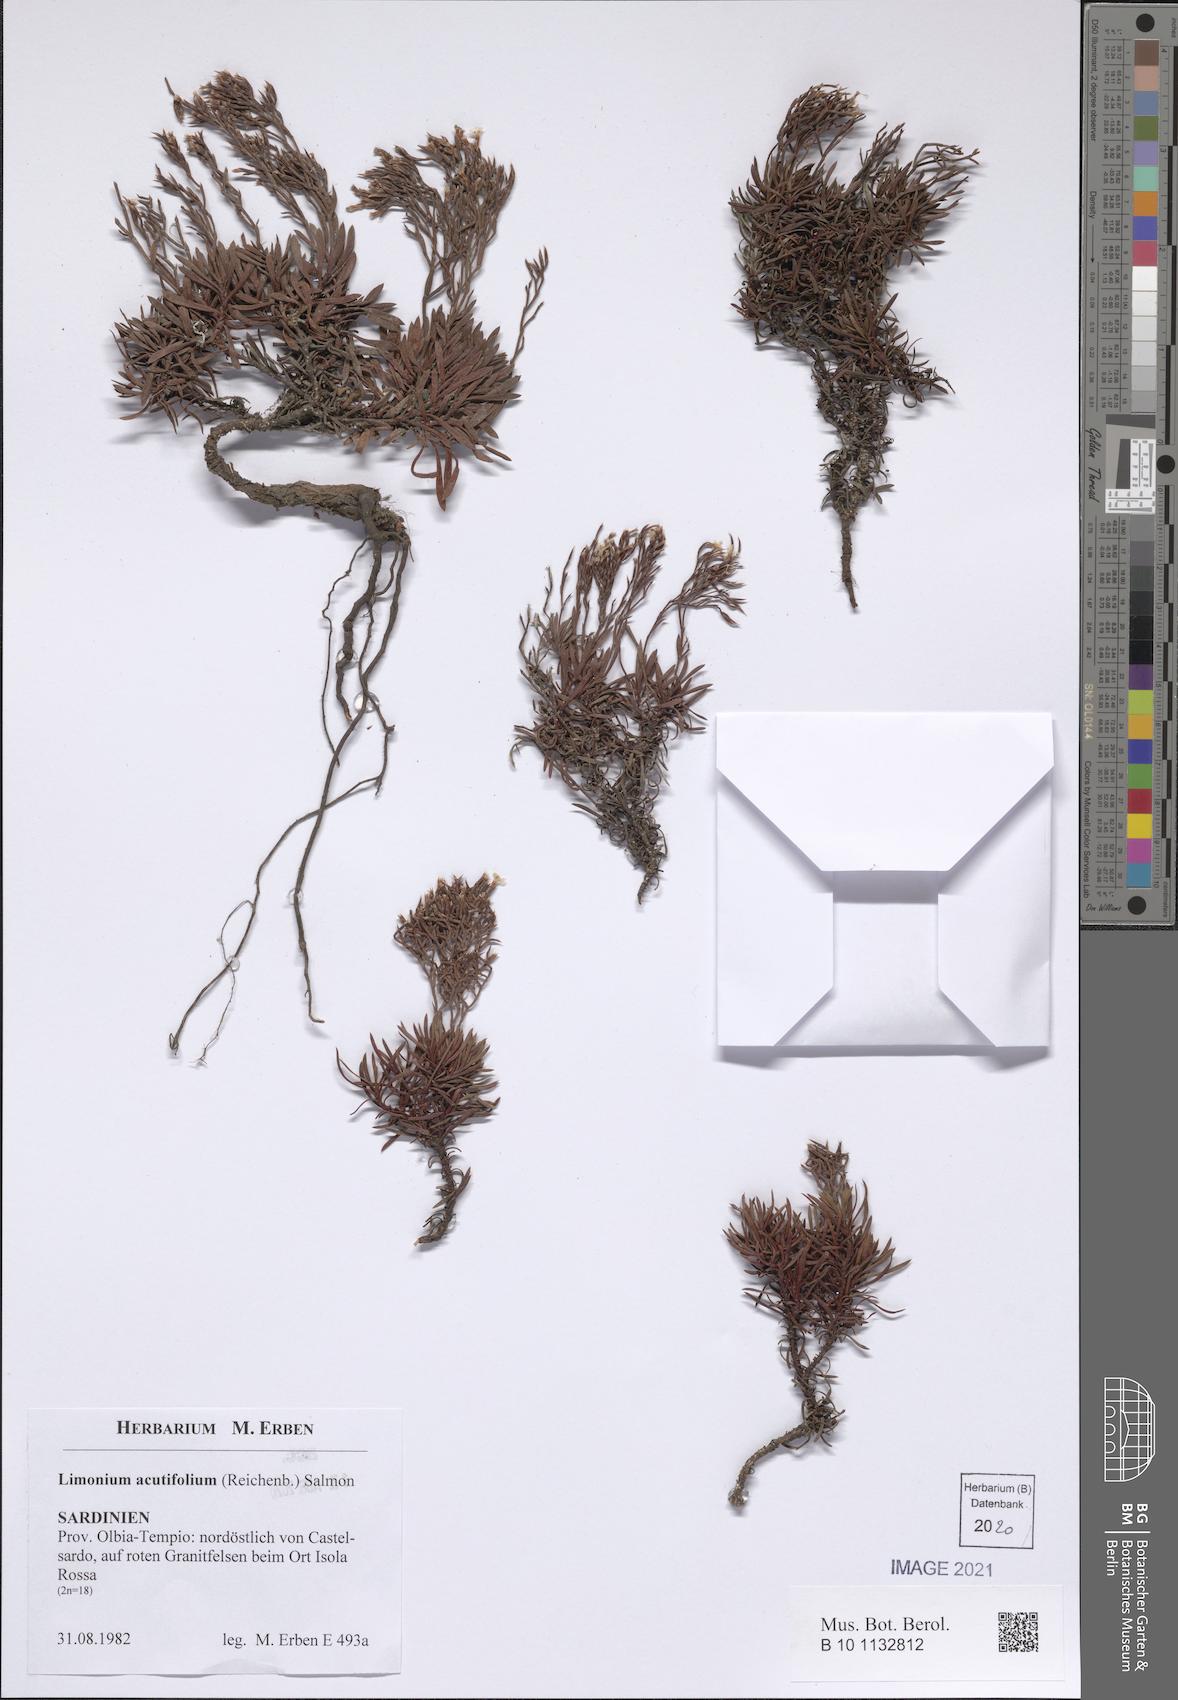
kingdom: Plantae
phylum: Tracheophyta
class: Magnoliopsida
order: Caryophyllales
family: Plumbaginaceae
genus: Limonium
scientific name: Limonium acutifolium
